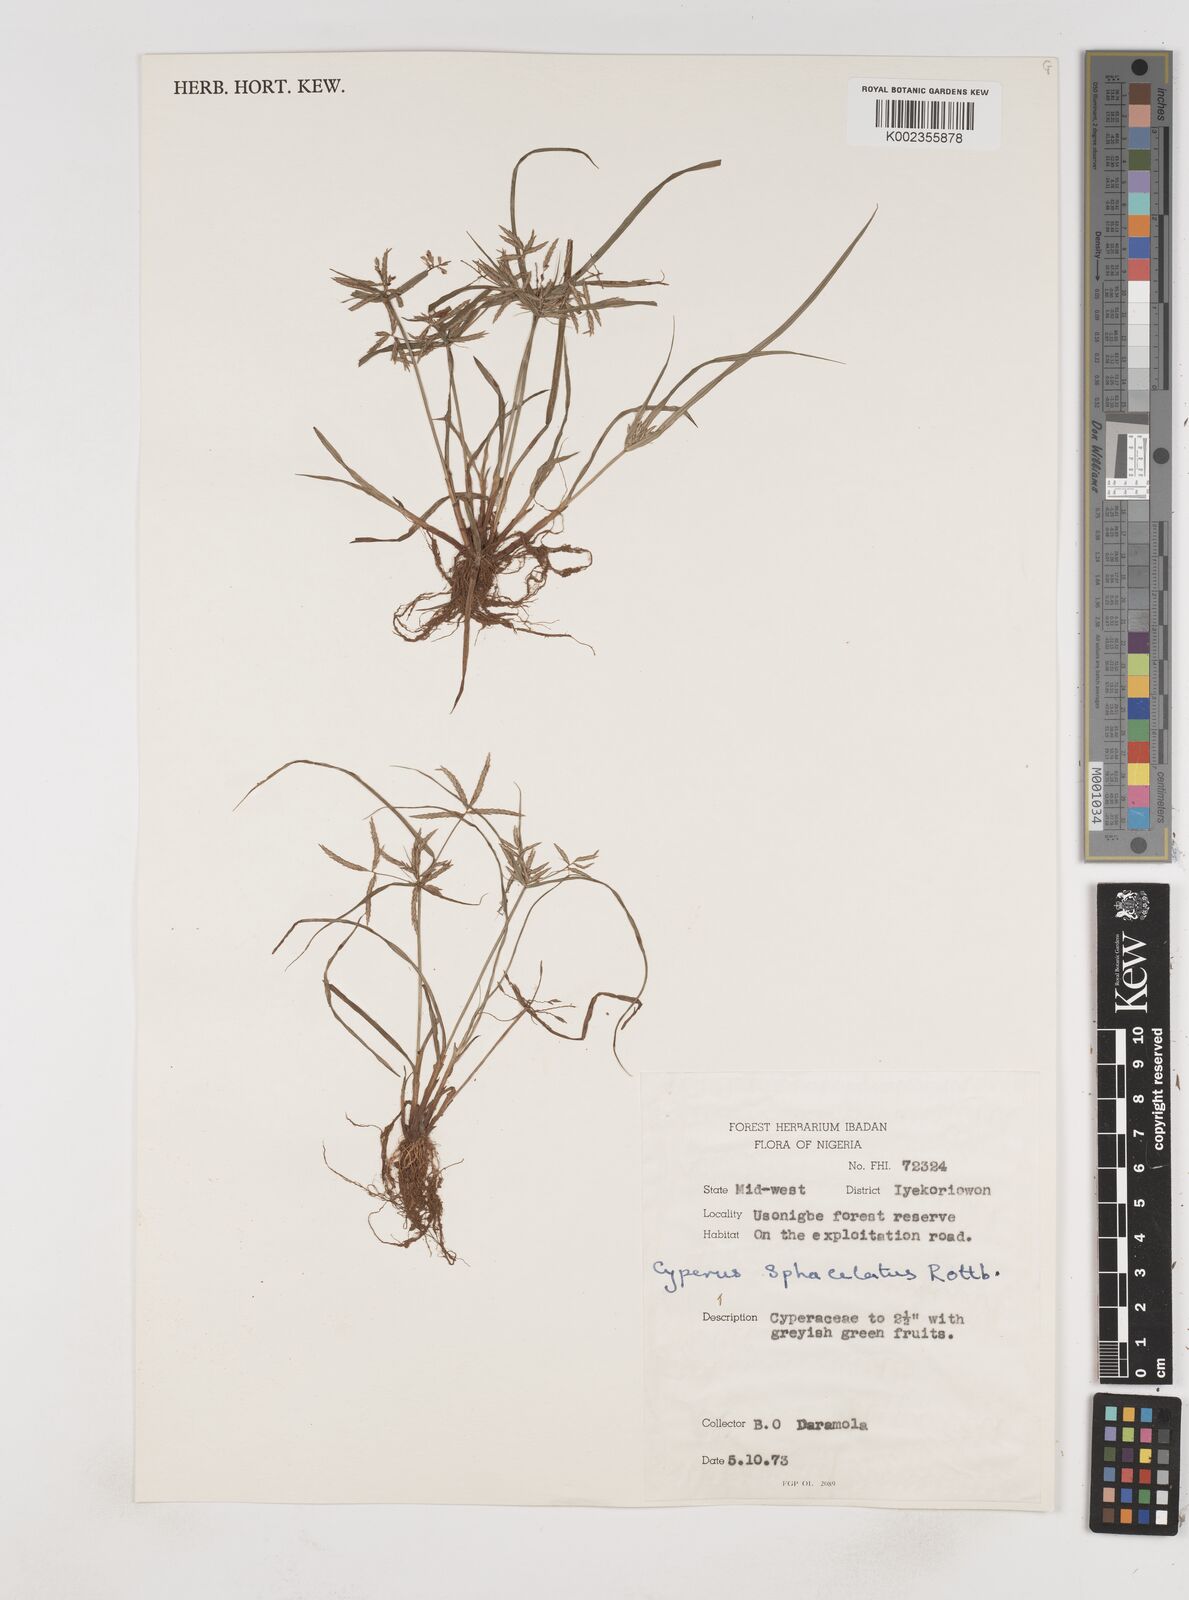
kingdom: Plantae
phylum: Tracheophyta
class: Liliopsida
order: Poales
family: Cyperaceae
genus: Cyperus
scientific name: Cyperus sphacelatus
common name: Roadside flatsedge
